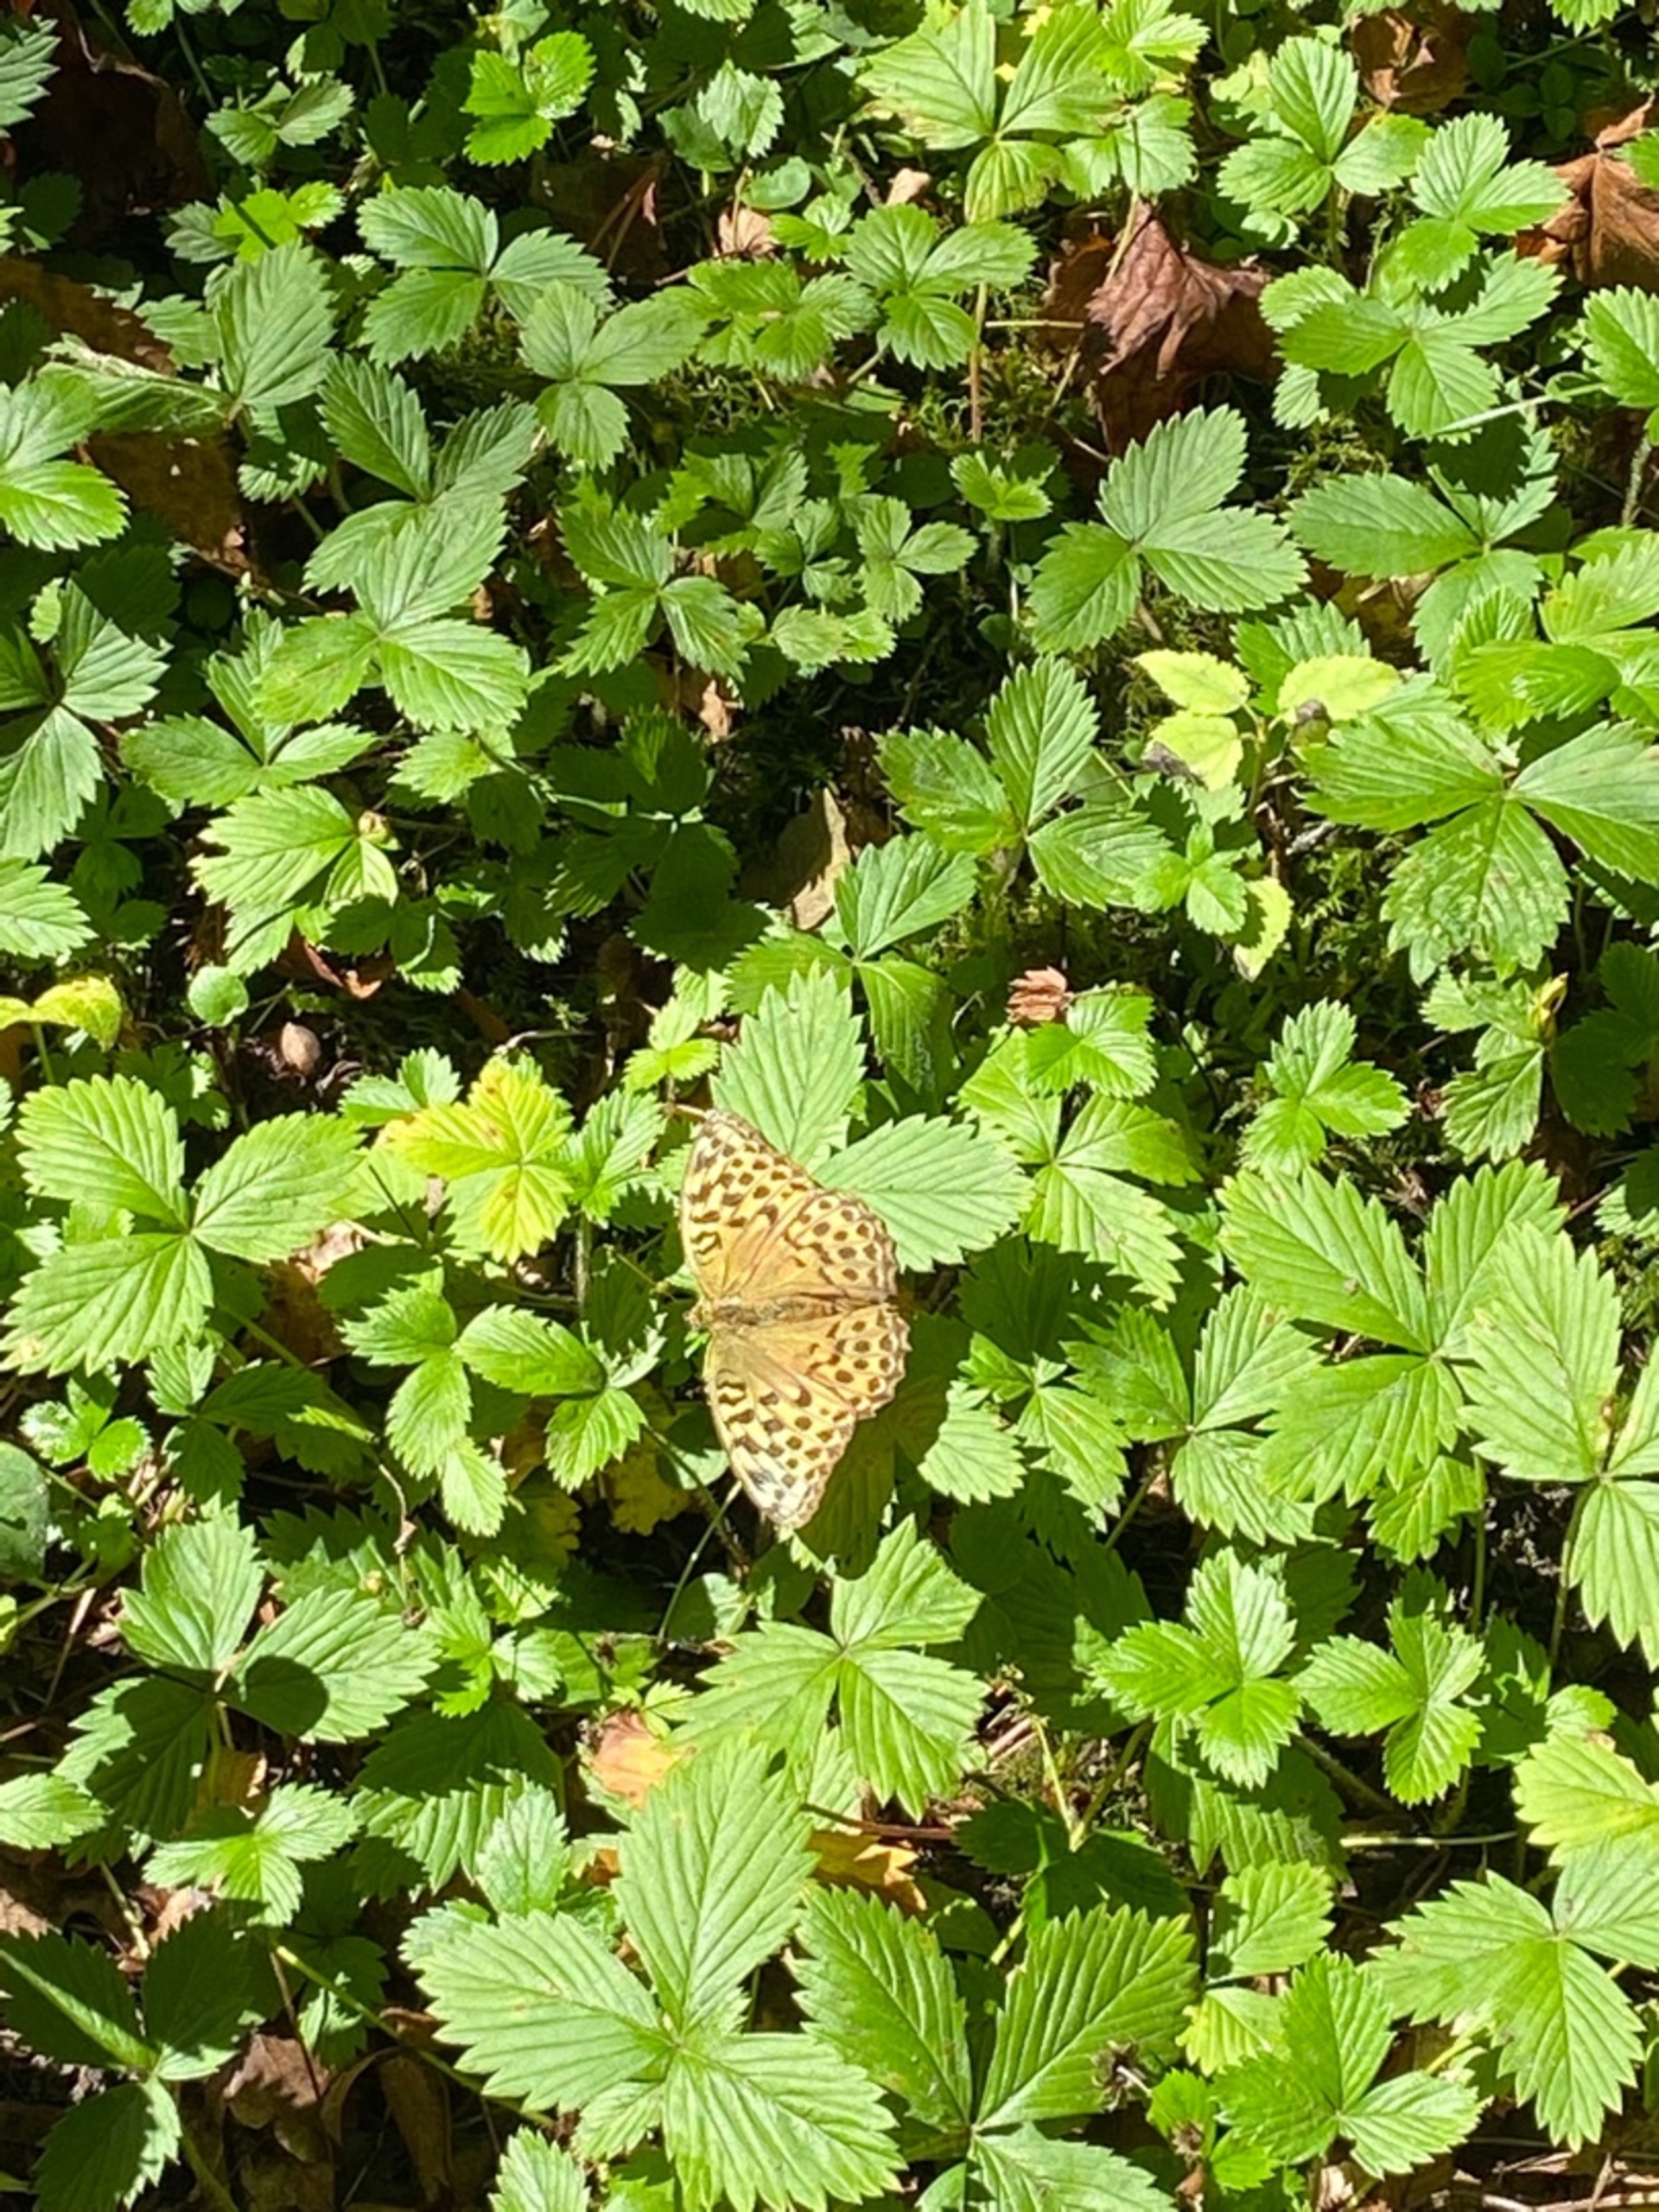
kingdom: Animalia
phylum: Arthropoda
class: Insecta
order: Lepidoptera
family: Nymphalidae
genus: Argynnis
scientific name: Argynnis paphia
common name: Kejserkåbe
